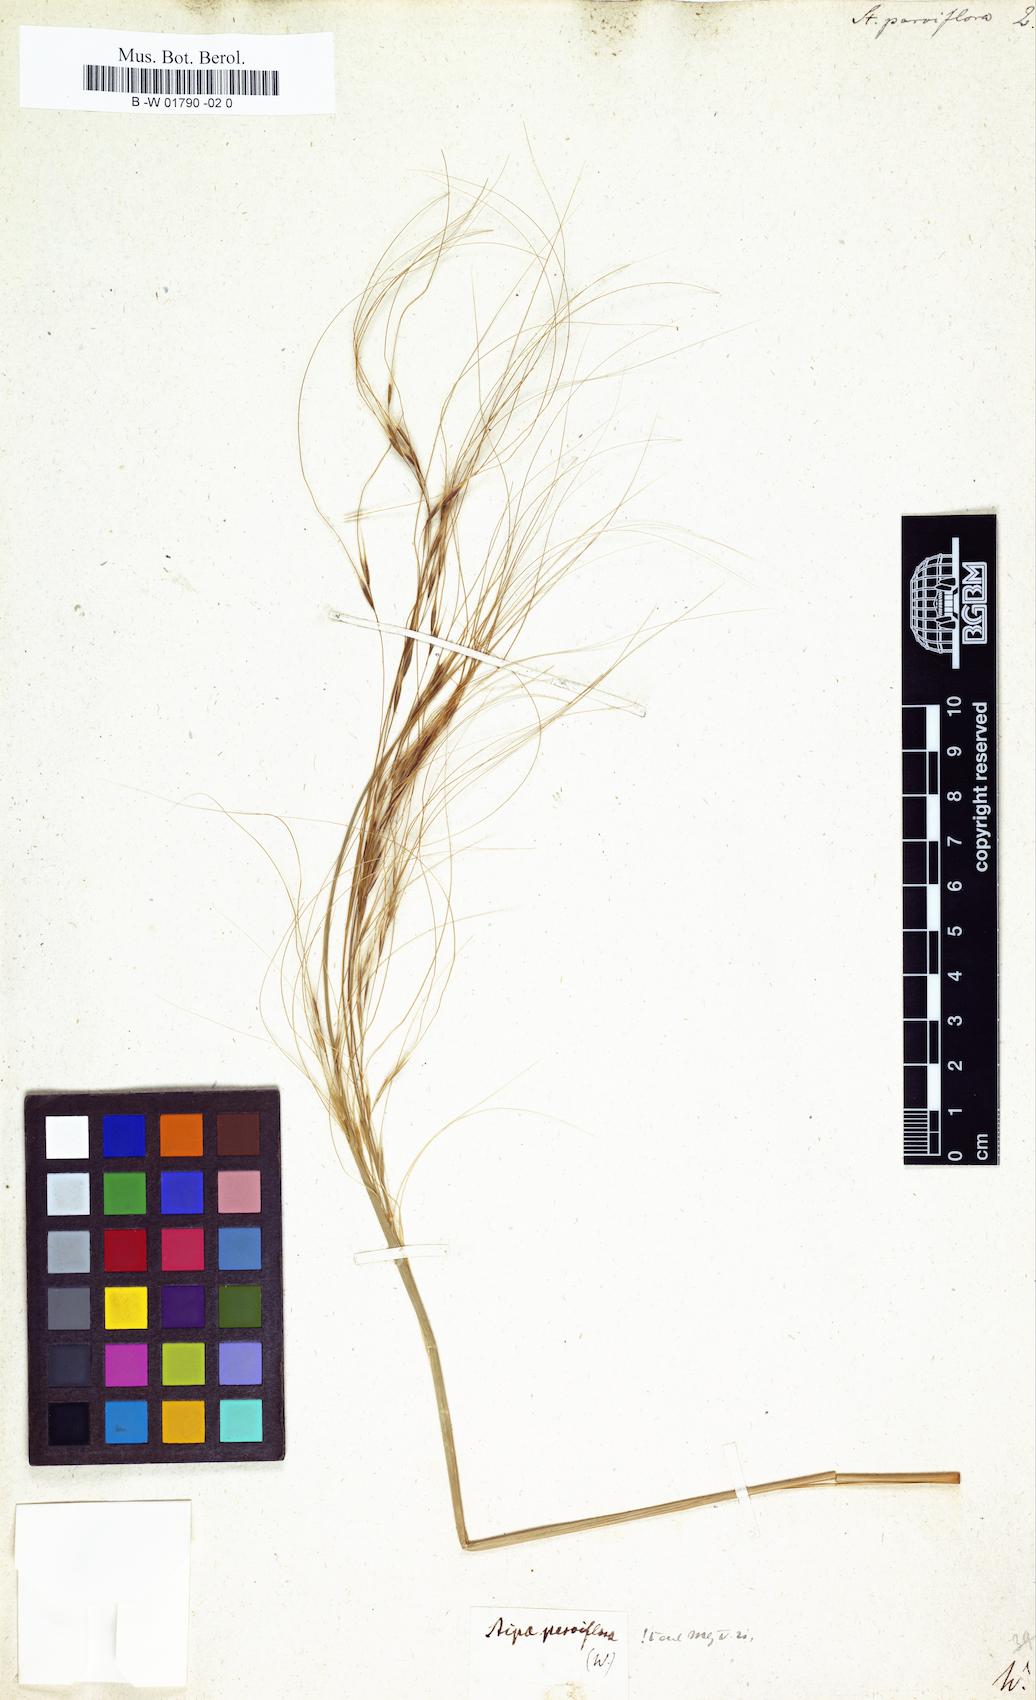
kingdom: Plantae
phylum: Tracheophyta
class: Liliopsida
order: Poales
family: Poaceae
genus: Achnatherum
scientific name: Achnatherum parviflorum
